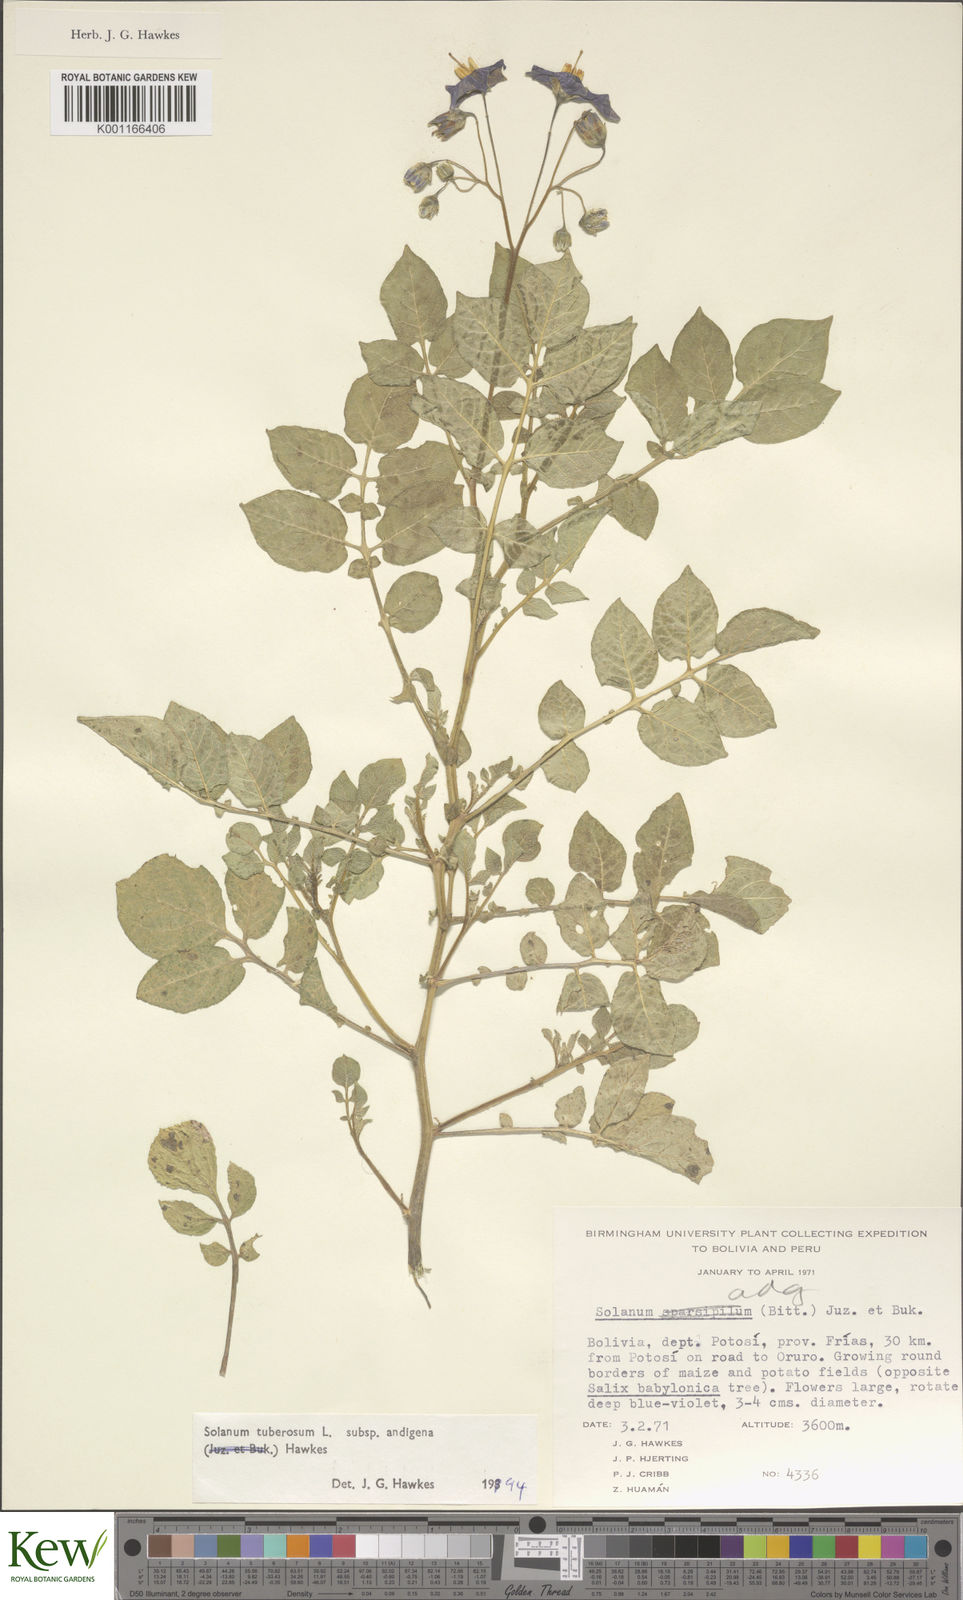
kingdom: Plantae
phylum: Tracheophyta
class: Magnoliopsida
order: Solanales
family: Solanaceae
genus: Solanum
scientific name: Solanum tuberosum
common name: Potato
